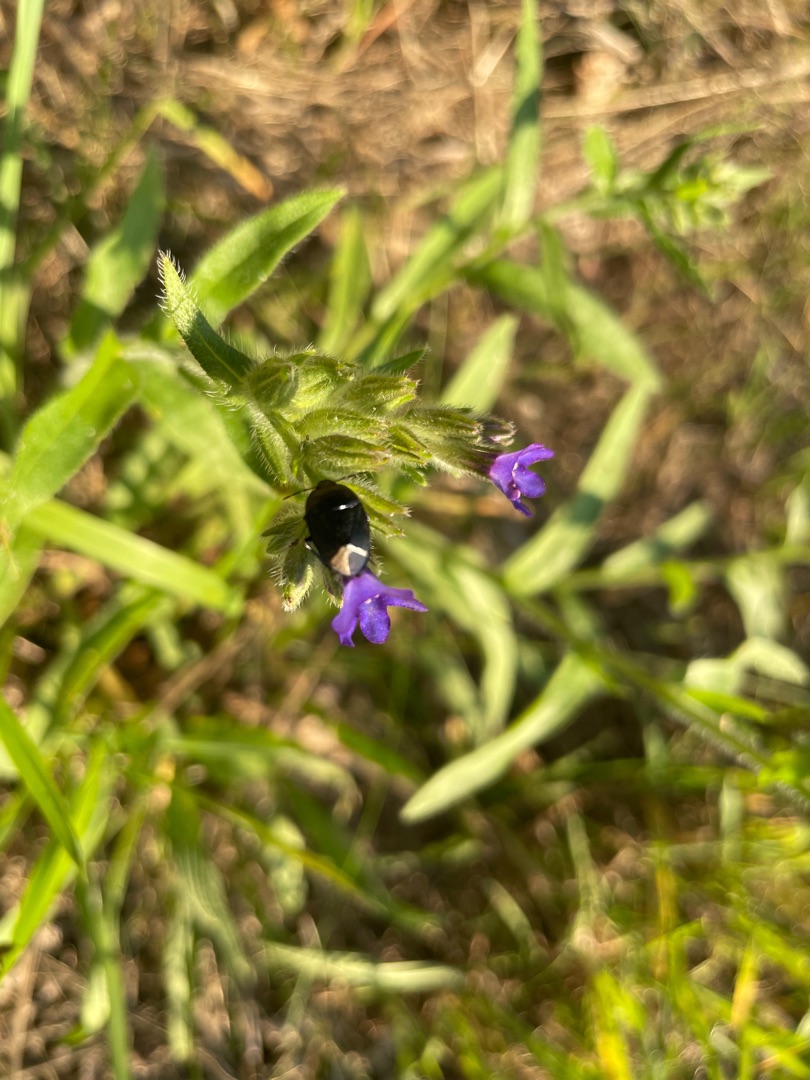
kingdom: Plantae
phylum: Tracheophyta
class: Magnoliopsida
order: Boraginales
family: Boraginaceae
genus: Anchusa
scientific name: Anchusa officinalis
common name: Læge-oksetunge
